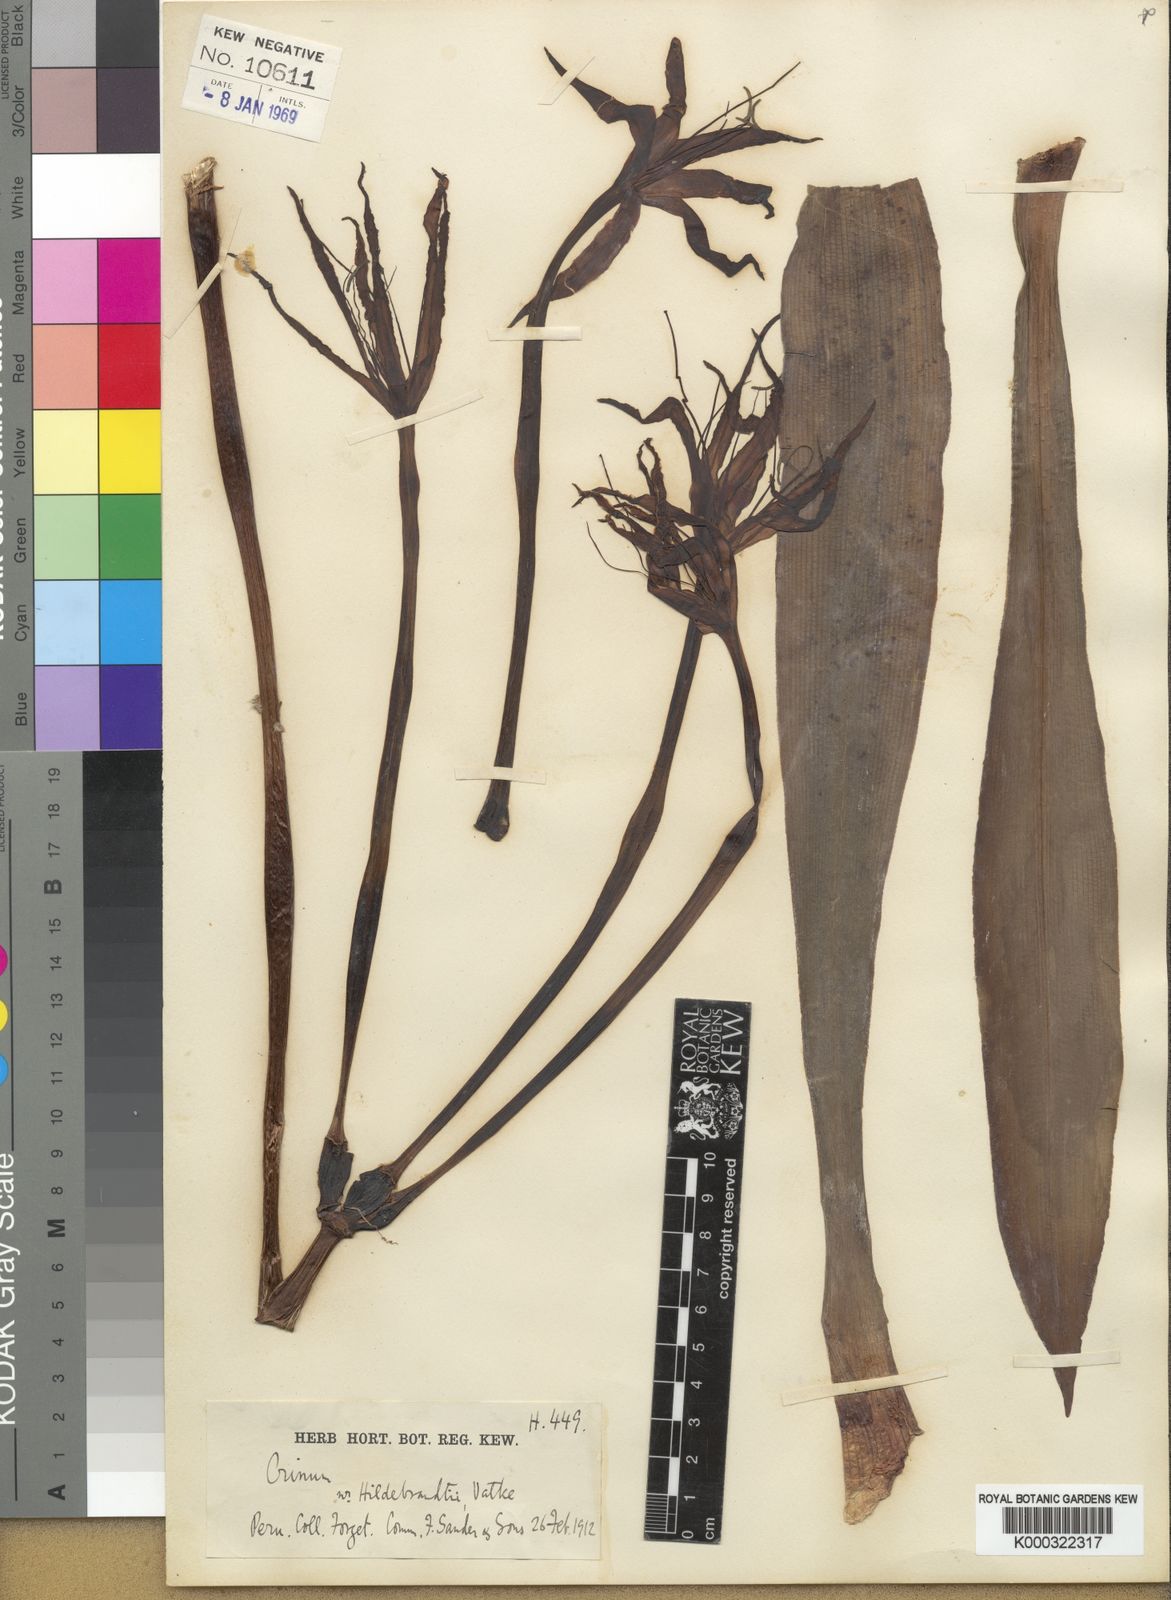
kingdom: Plantae
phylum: Tracheophyta
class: Liliopsida
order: Asparagales
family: Amaryllidaceae
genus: Crinum
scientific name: Crinum forgetii
